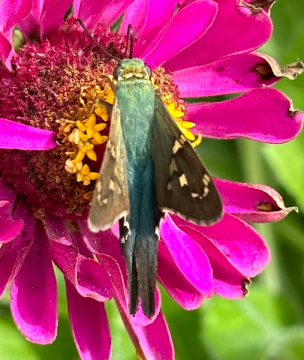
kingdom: Animalia
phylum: Arthropoda
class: Insecta
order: Lepidoptera
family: Hesperiidae
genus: Urbanus
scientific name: Urbanus proteus
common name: Long-tailed Skipper
